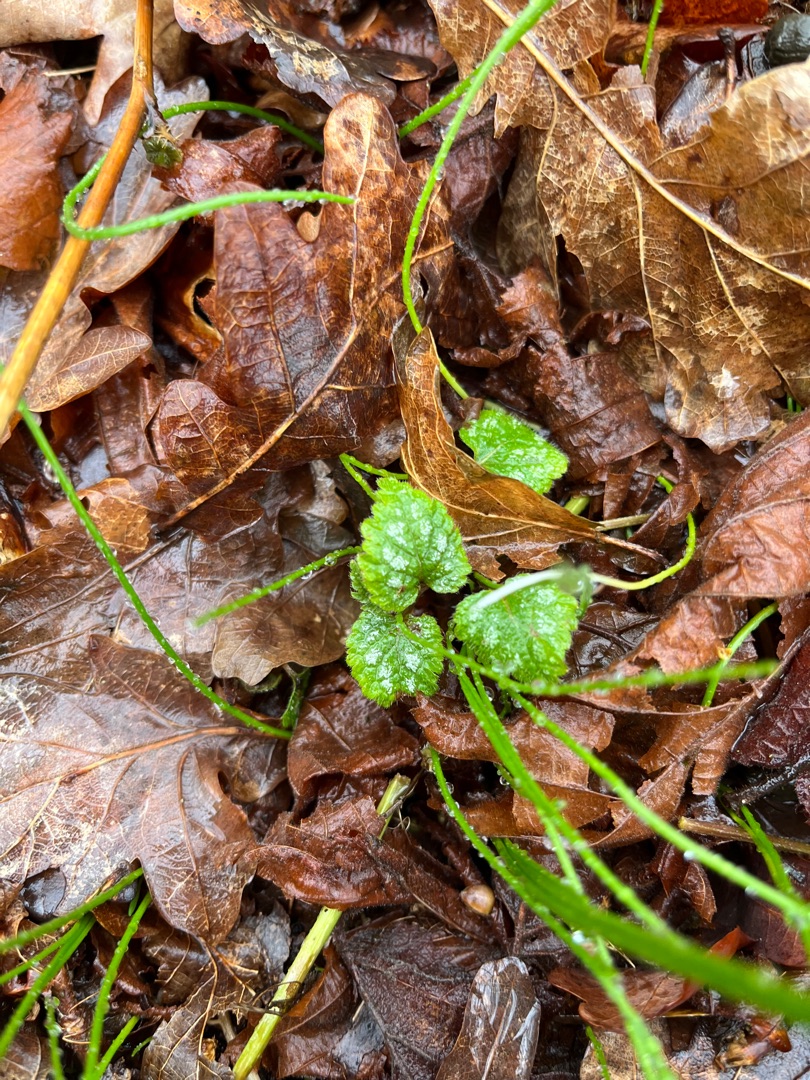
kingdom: Plantae
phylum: Tracheophyta
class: Magnoliopsida
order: Lamiales
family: Lamiaceae
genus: Lamium
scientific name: Lamium galeobdolon
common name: Almindelig guldnælde
